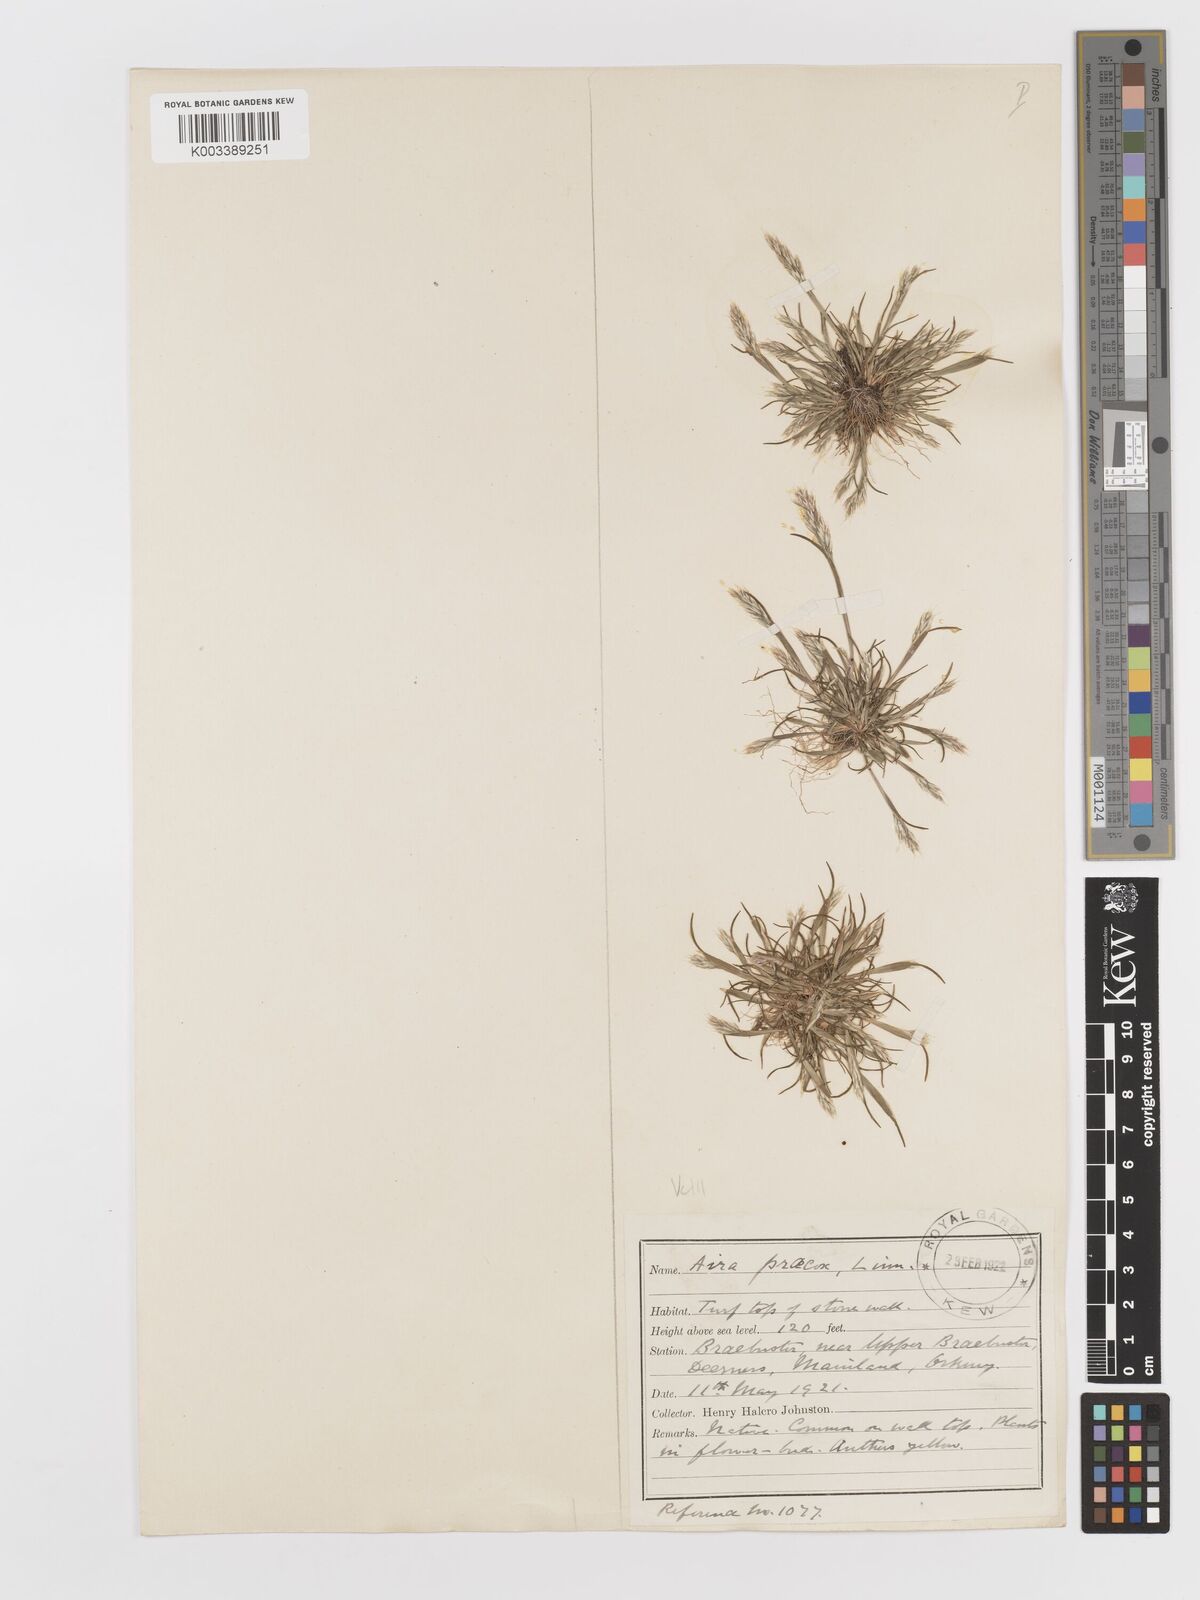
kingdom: Plantae
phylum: Tracheophyta
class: Liliopsida
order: Poales
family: Poaceae
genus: Aira
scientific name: Aira praecox
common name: Early hair-grass
